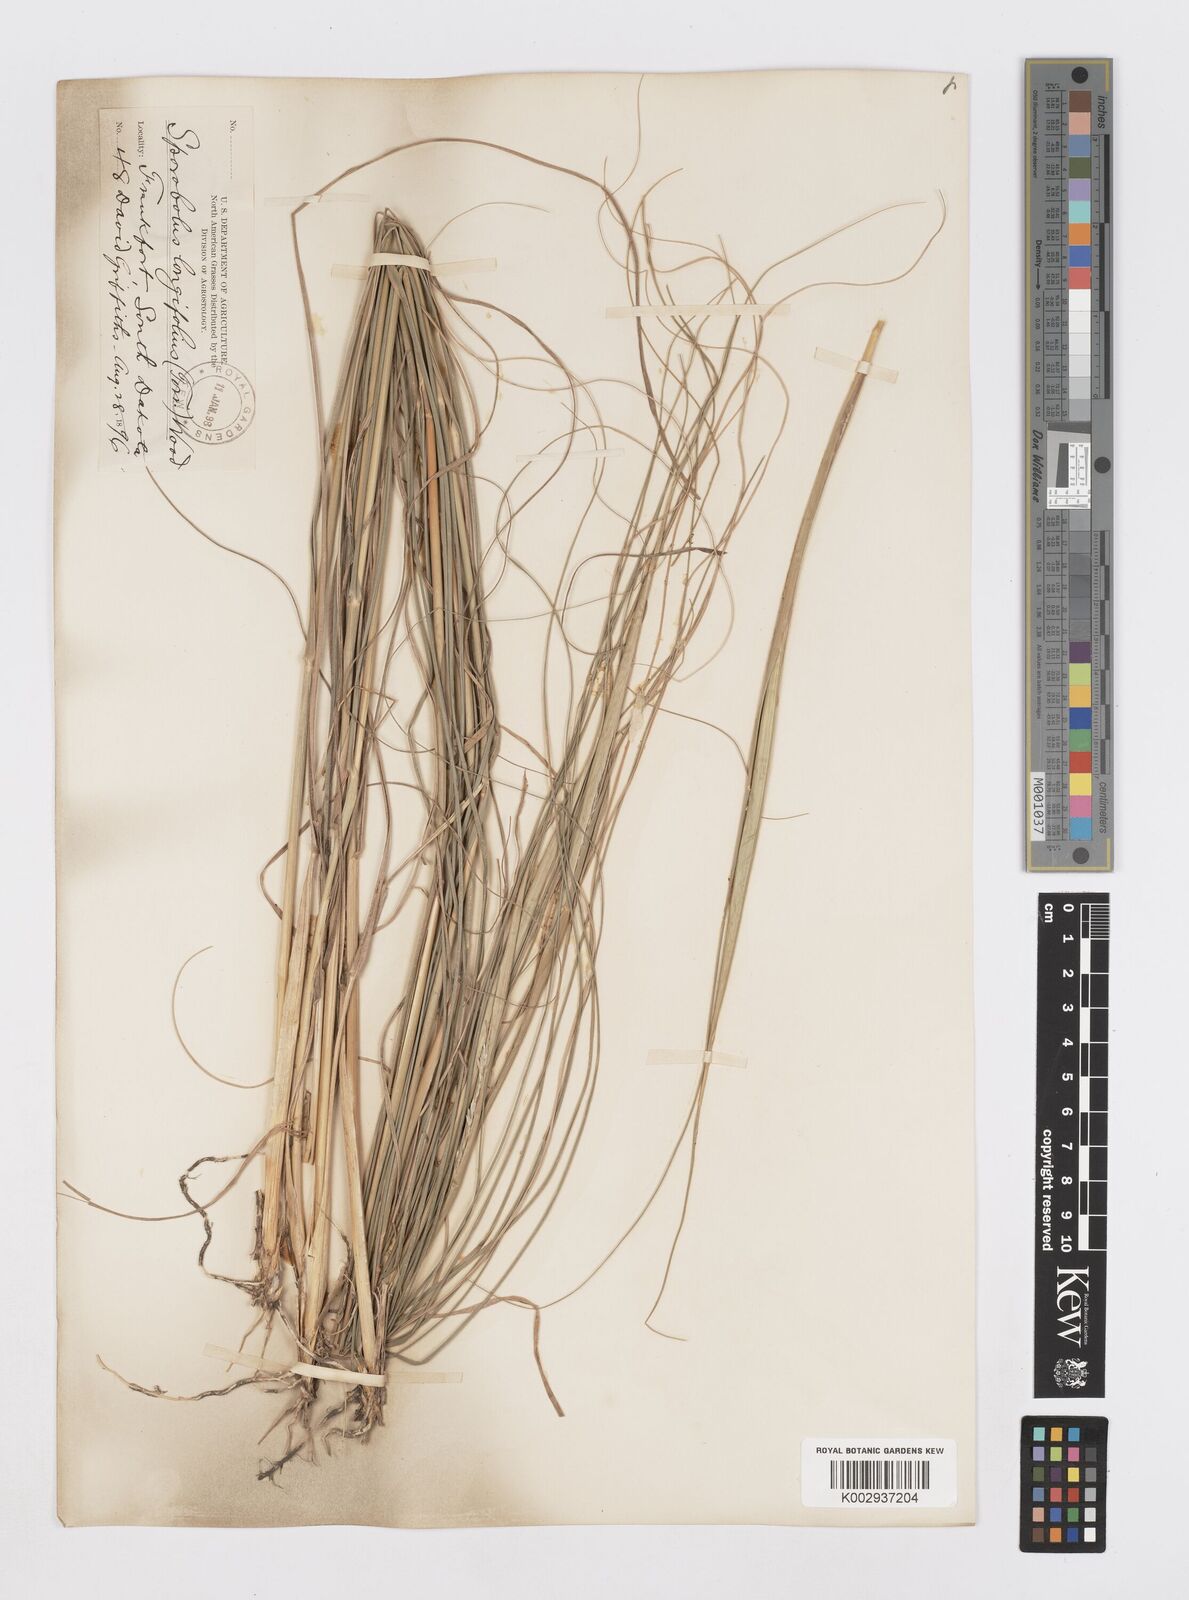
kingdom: Plantae
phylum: Tracheophyta
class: Liliopsida
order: Poales
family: Poaceae
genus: Sporobolus
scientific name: Sporobolus compositus
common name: Rough dropseed
